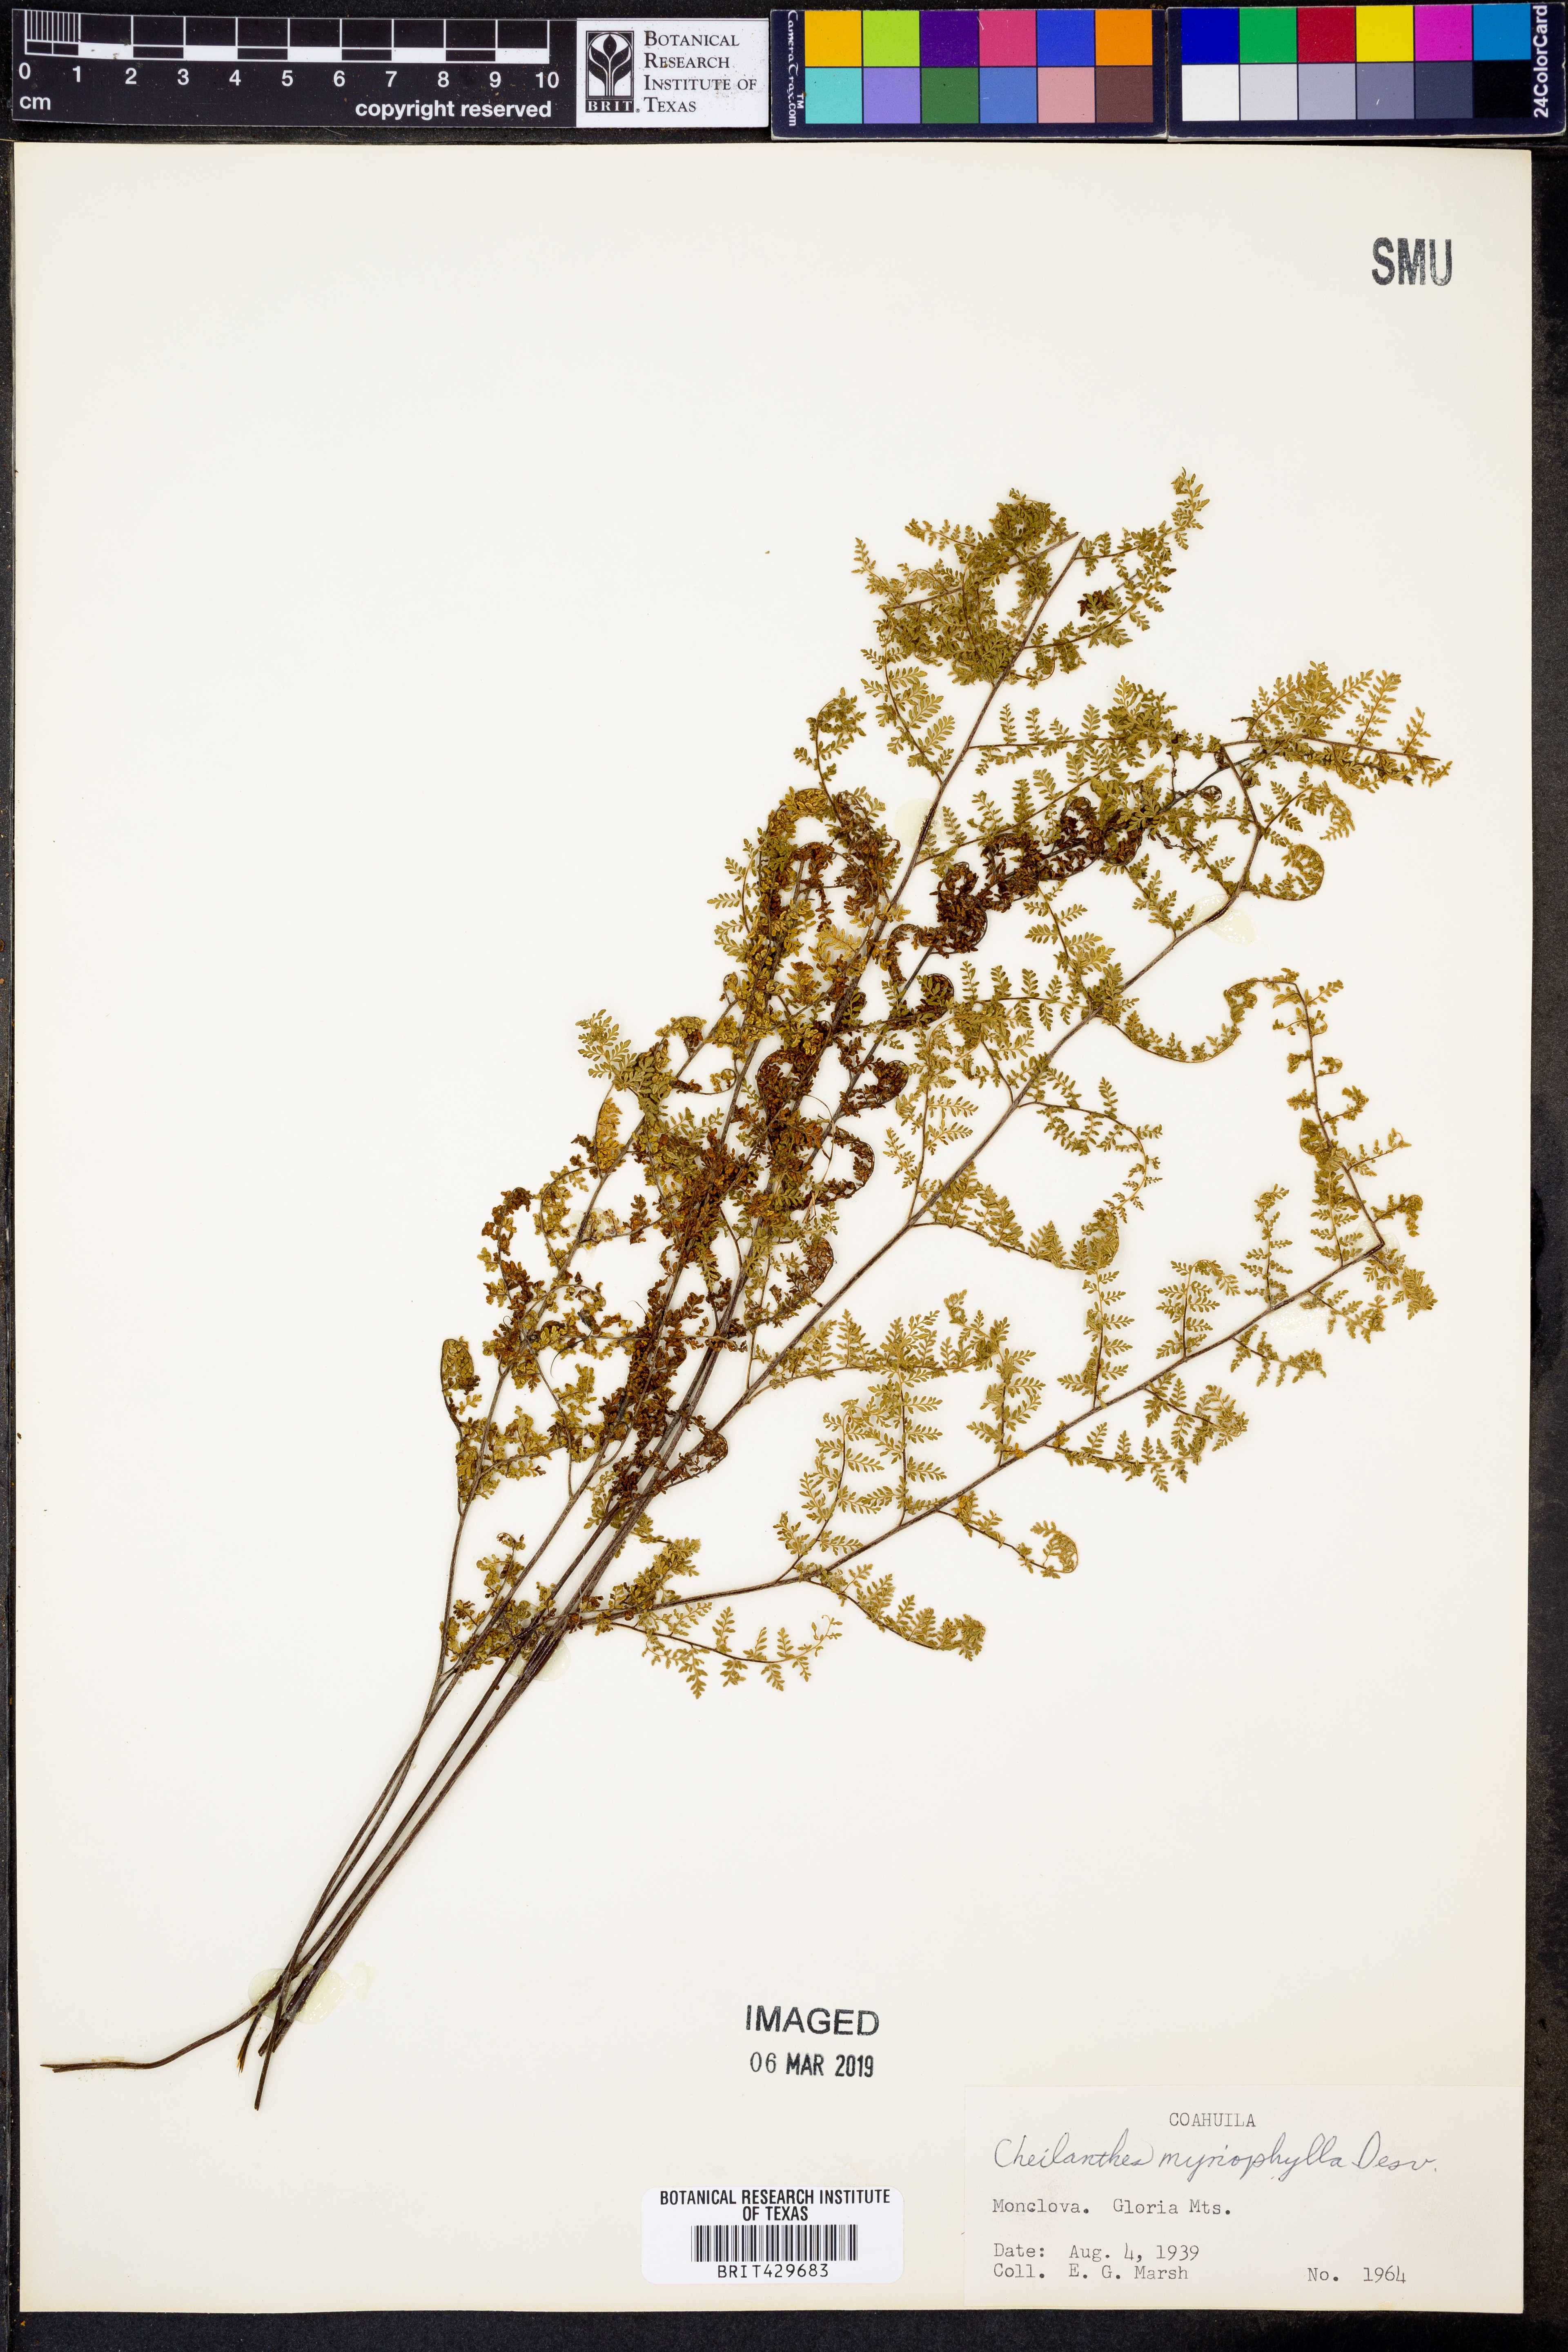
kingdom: Plantae
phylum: Tracheophyta
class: Polypodiopsida
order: Polypodiales
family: Pteridaceae
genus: Myriopteris
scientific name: Myriopteris myriophylla
